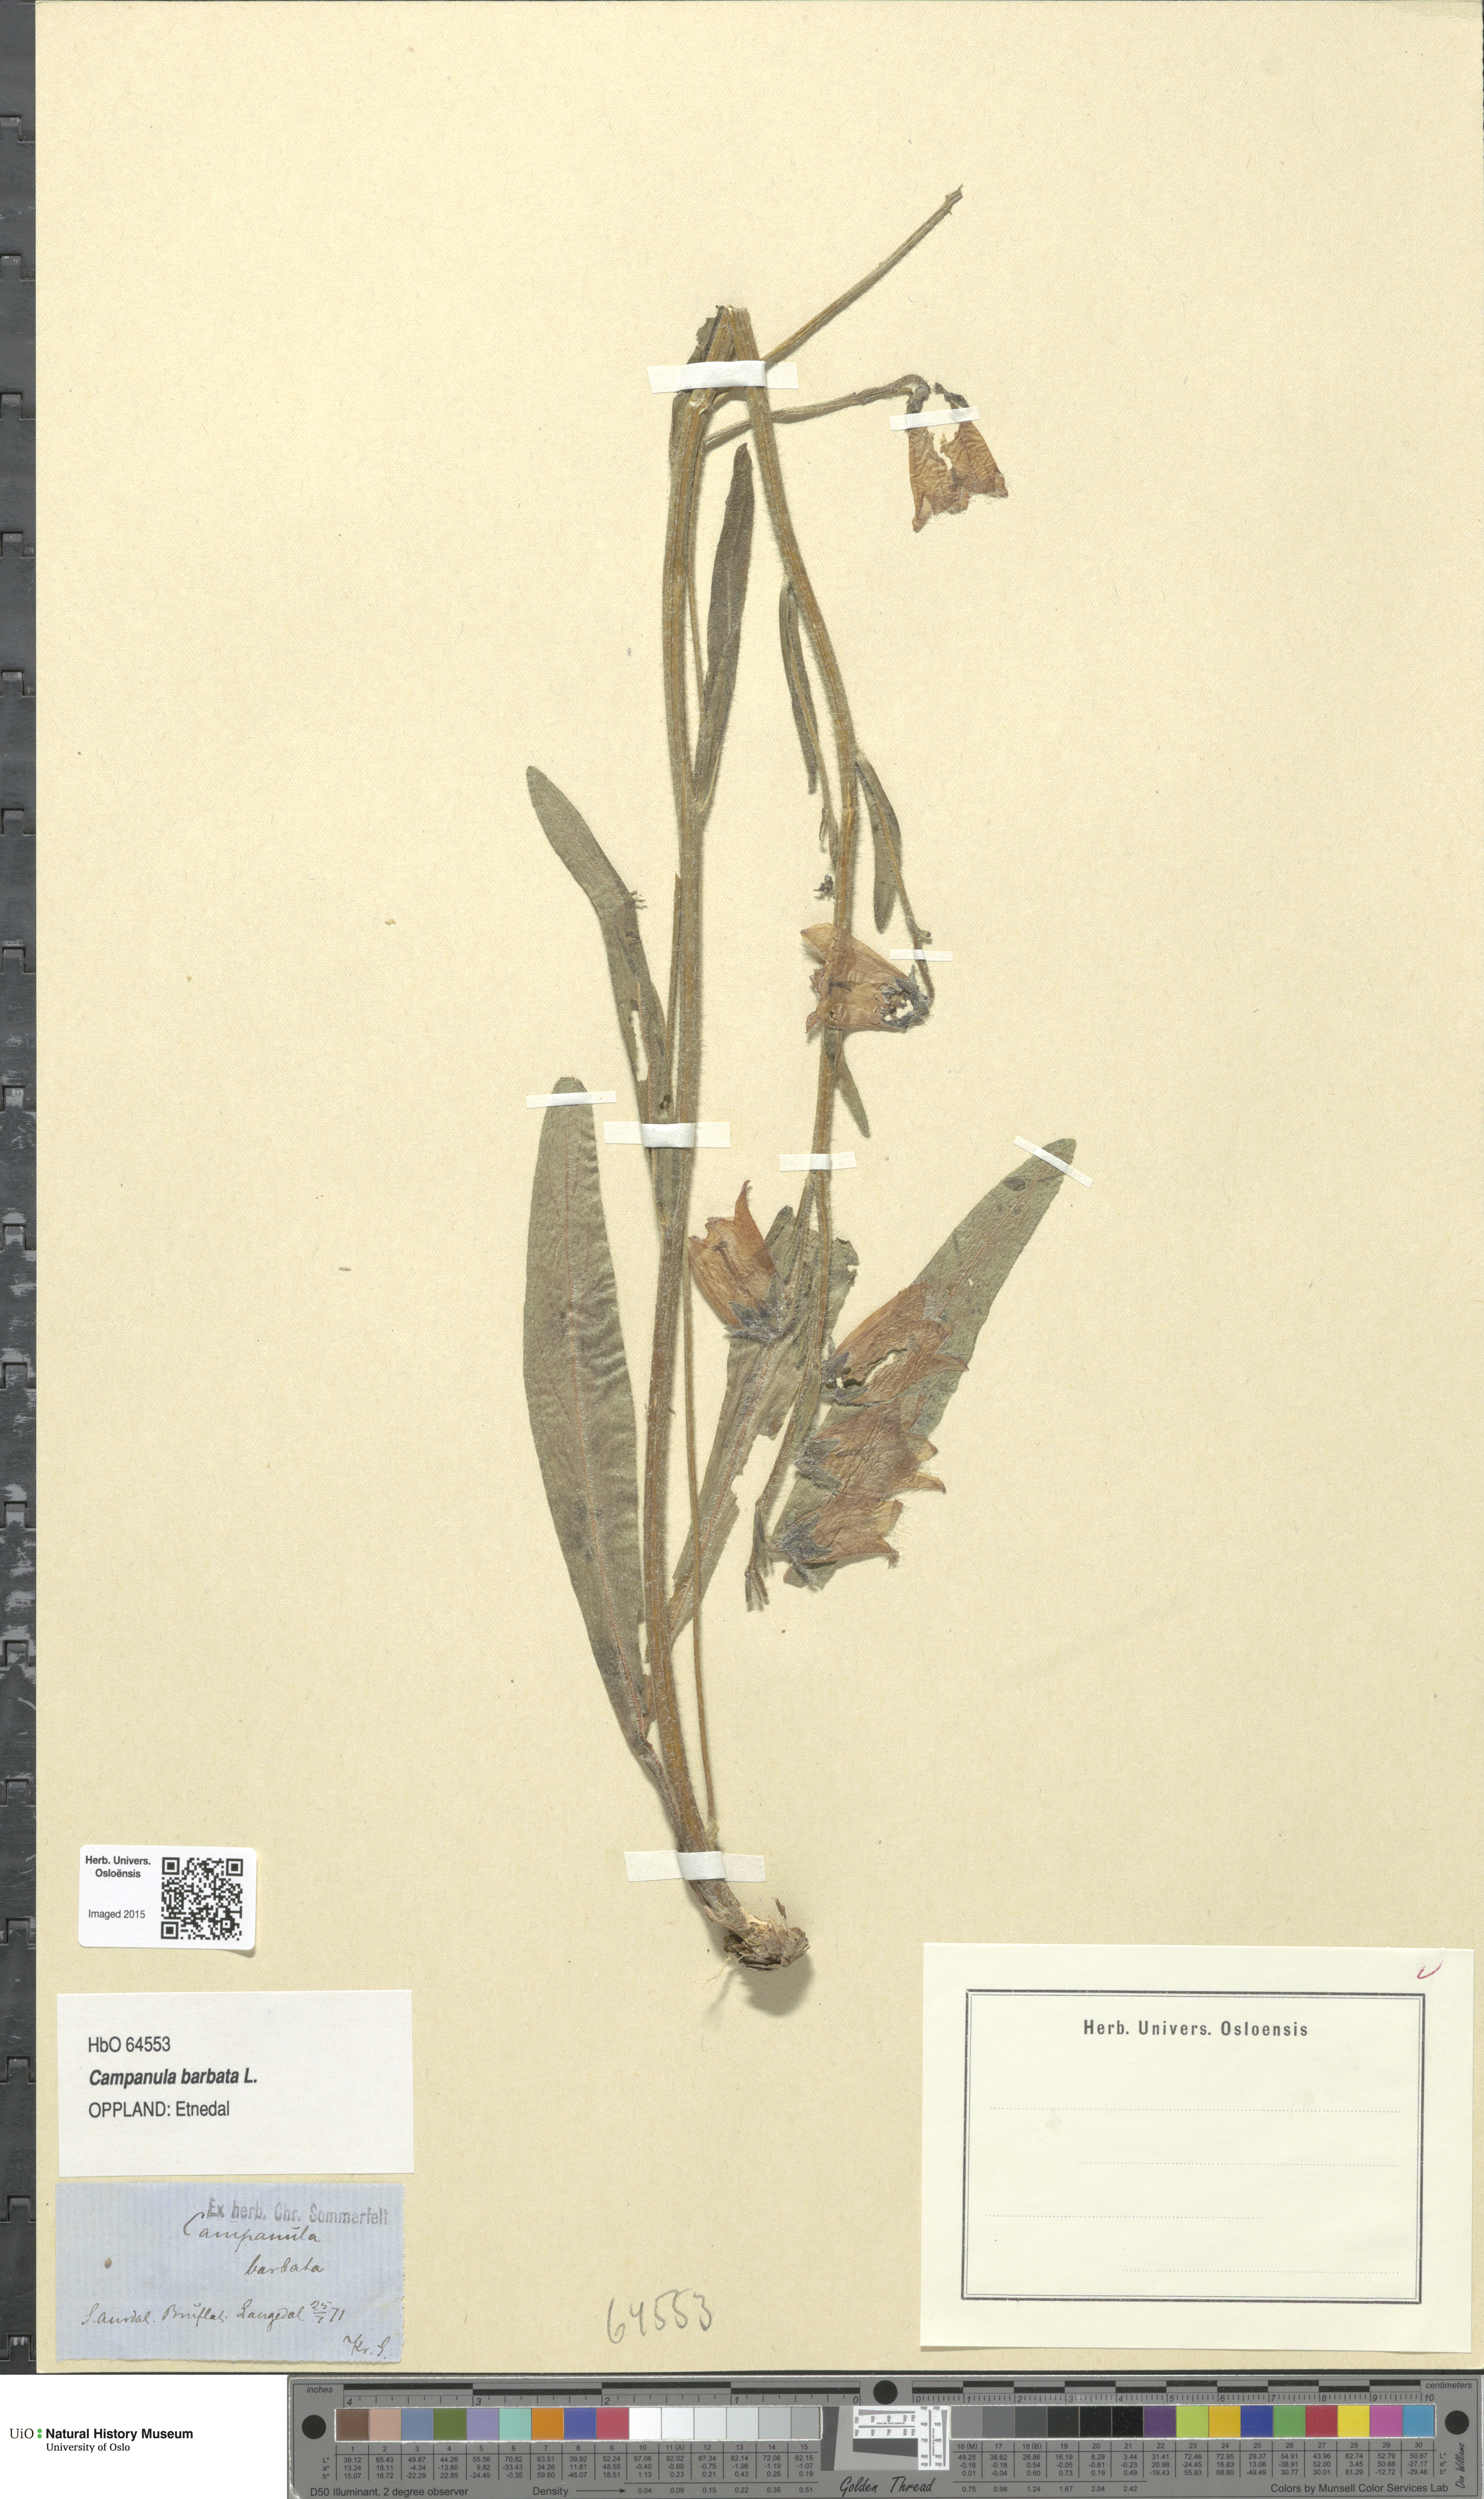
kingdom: Plantae
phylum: Tracheophyta
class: Magnoliopsida
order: Asterales
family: Campanulaceae
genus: Campanula
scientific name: Campanula barbata
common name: Bearded bellflower
